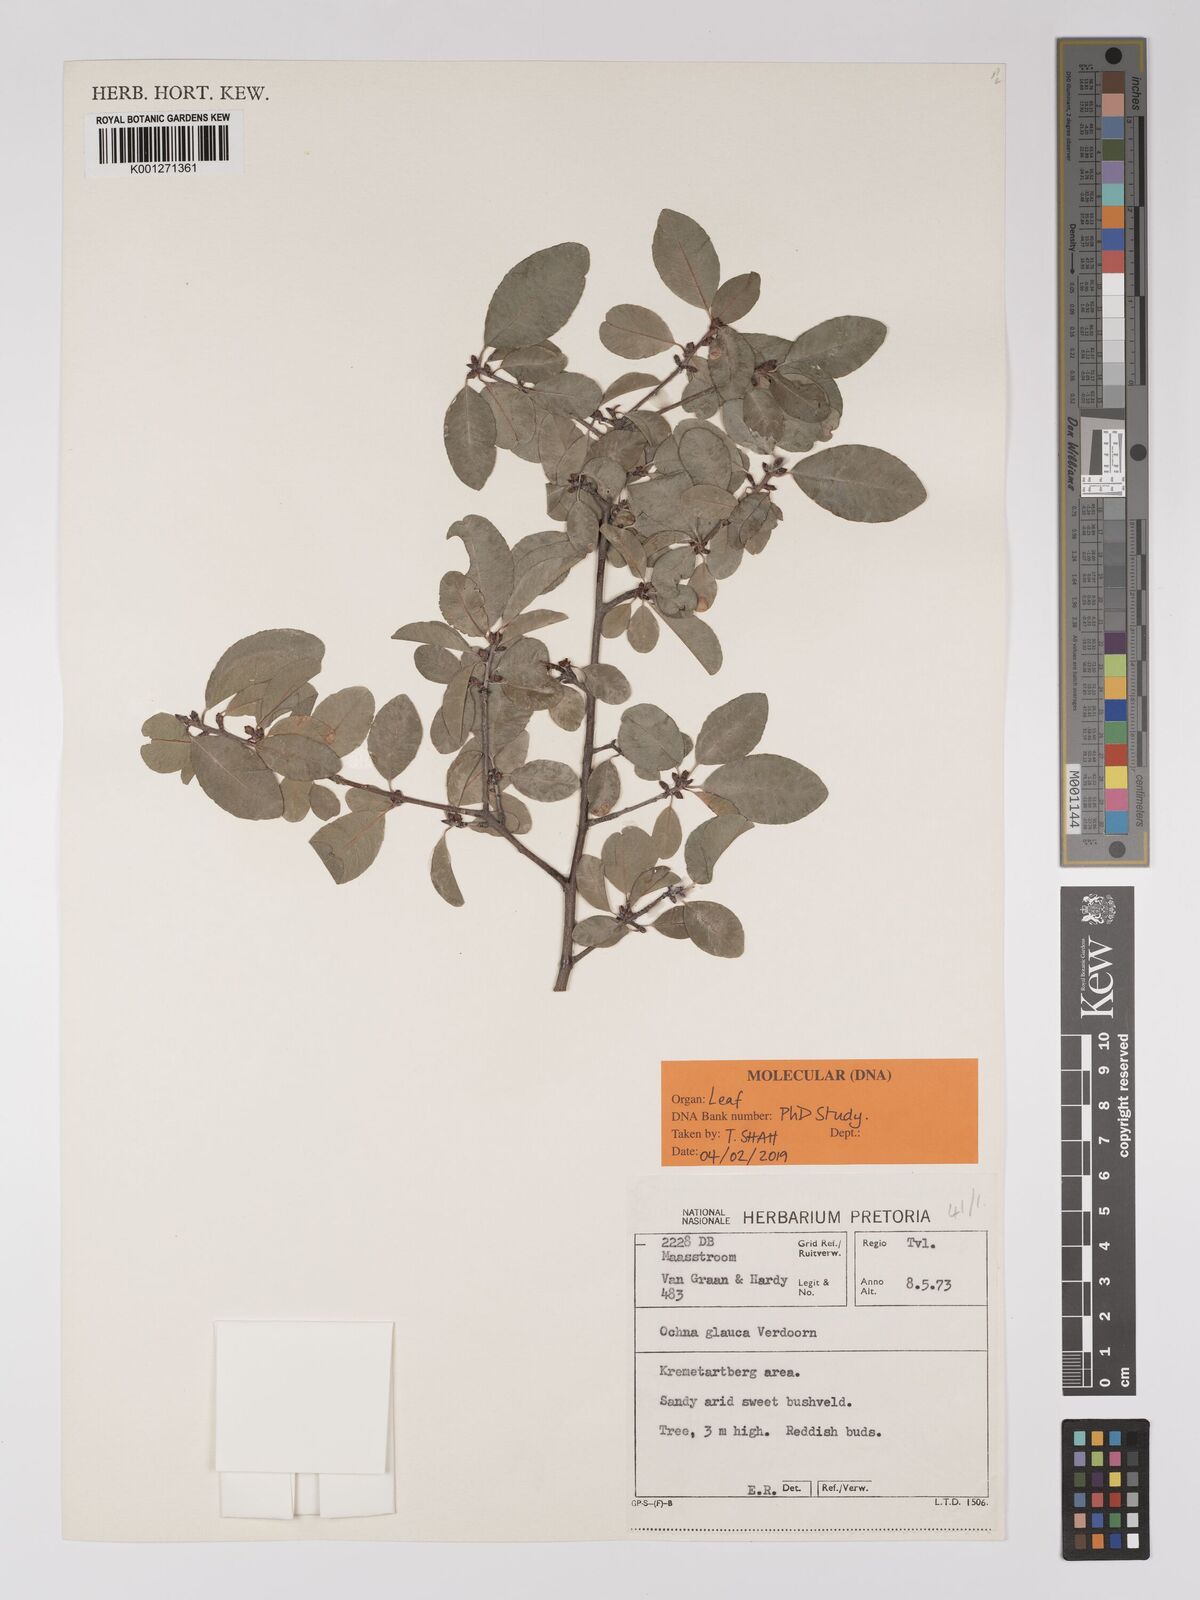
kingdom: Plantae
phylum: Tracheophyta
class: Magnoliopsida
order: Malpighiales
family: Ochnaceae
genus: Ochna
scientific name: Ochna glauca
